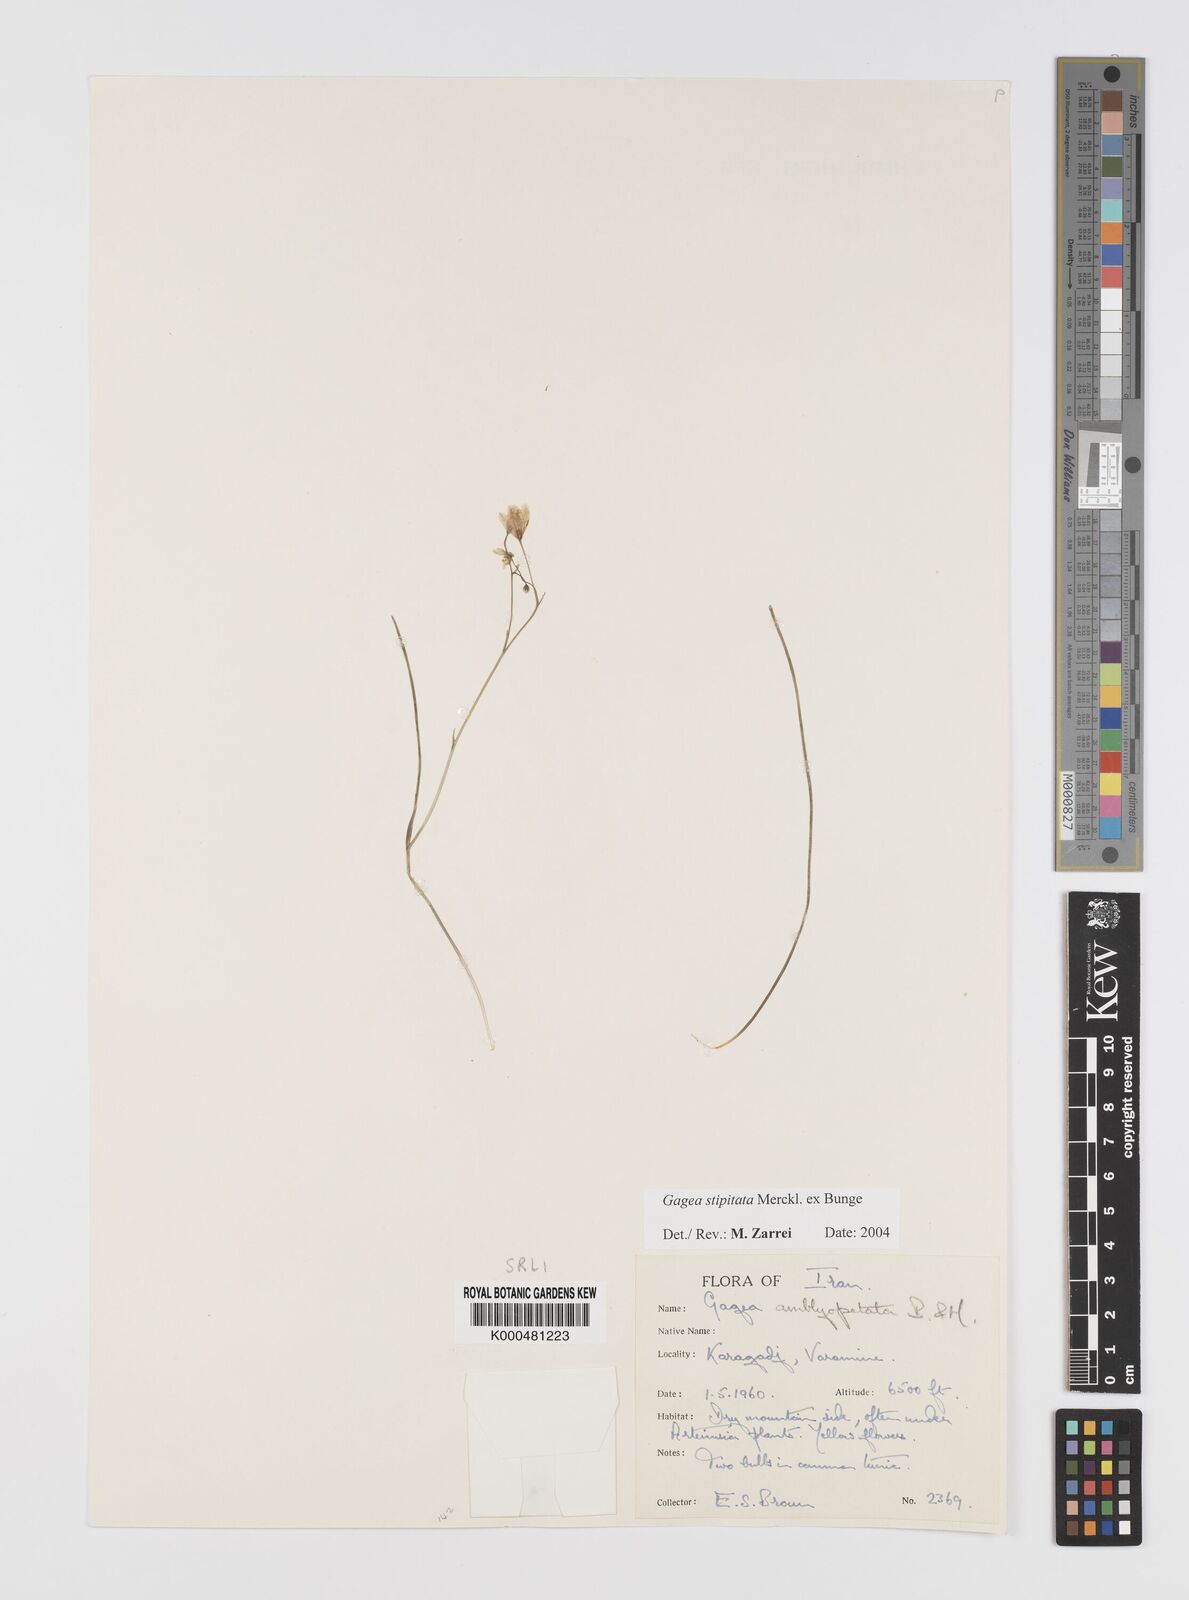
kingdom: Plantae
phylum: Tracheophyta
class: Liliopsida
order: Liliales
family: Liliaceae
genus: Gagea
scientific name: Gagea kunawurensis
